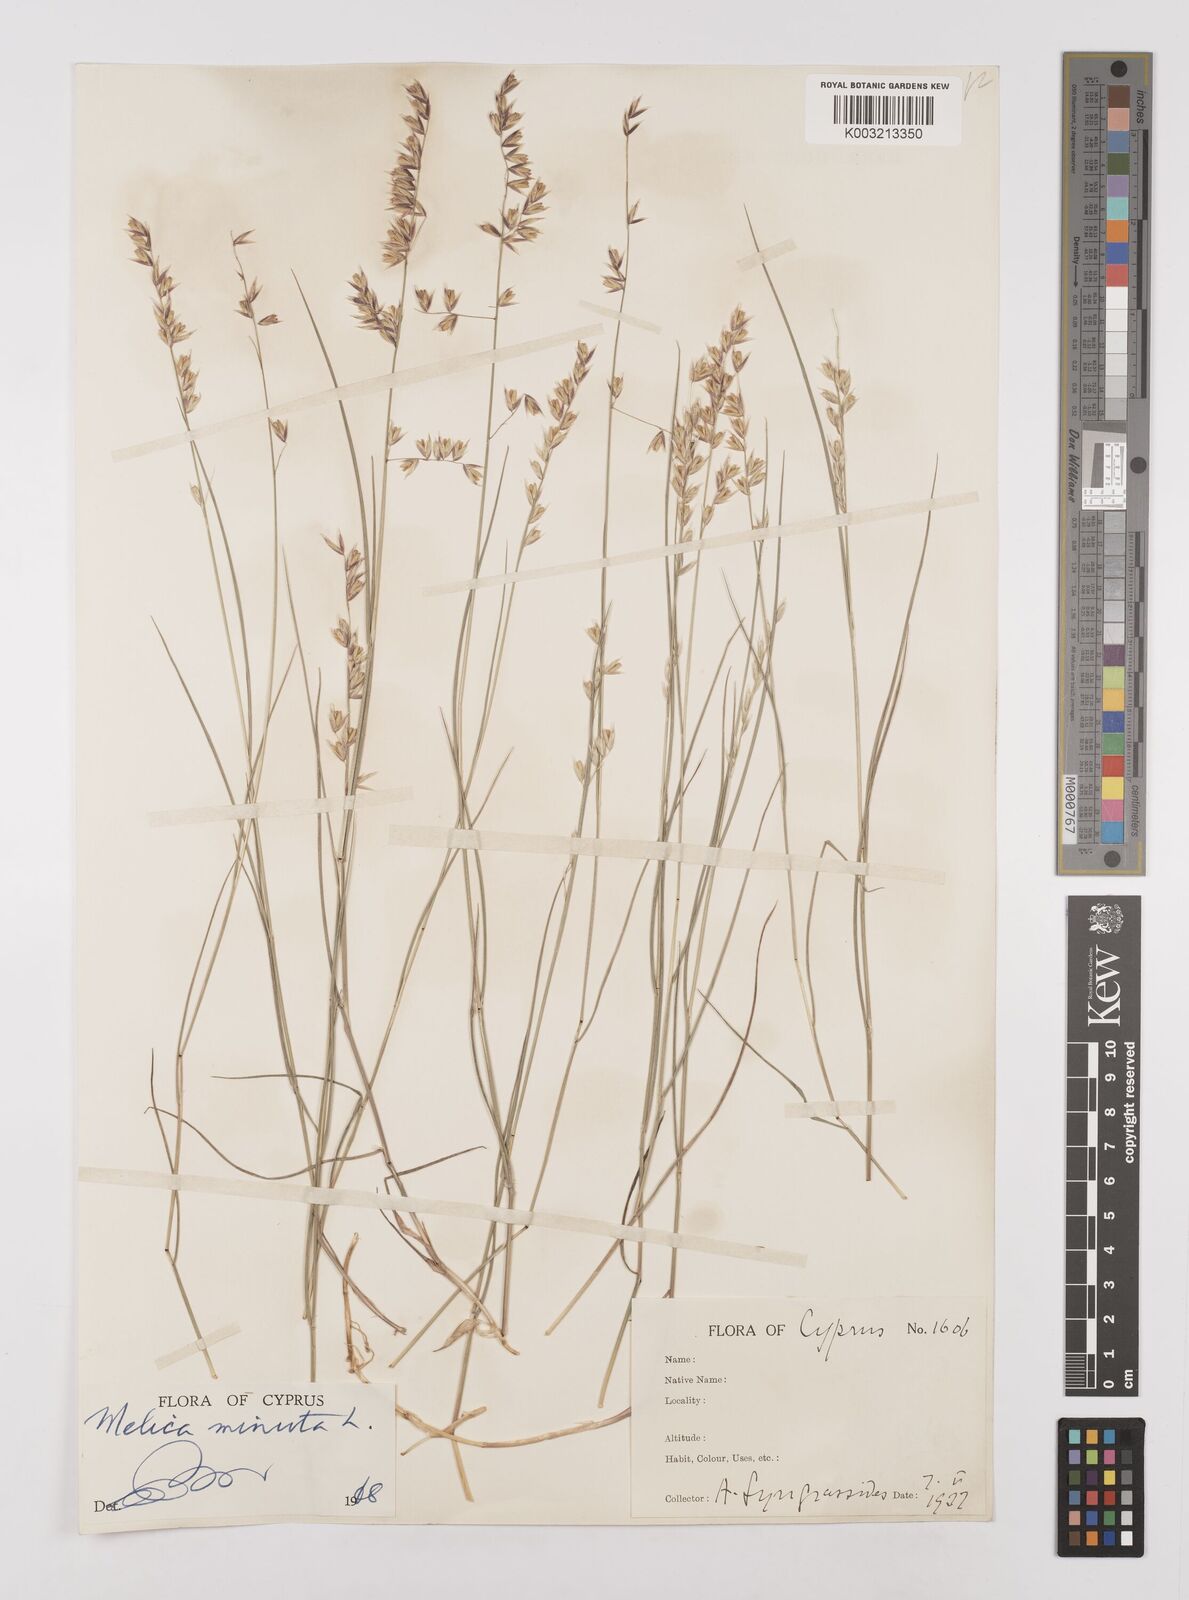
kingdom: Plantae
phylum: Tracheophyta
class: Liliopsida
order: Poales
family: Poaceae
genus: Melica
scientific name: Melica minuta
